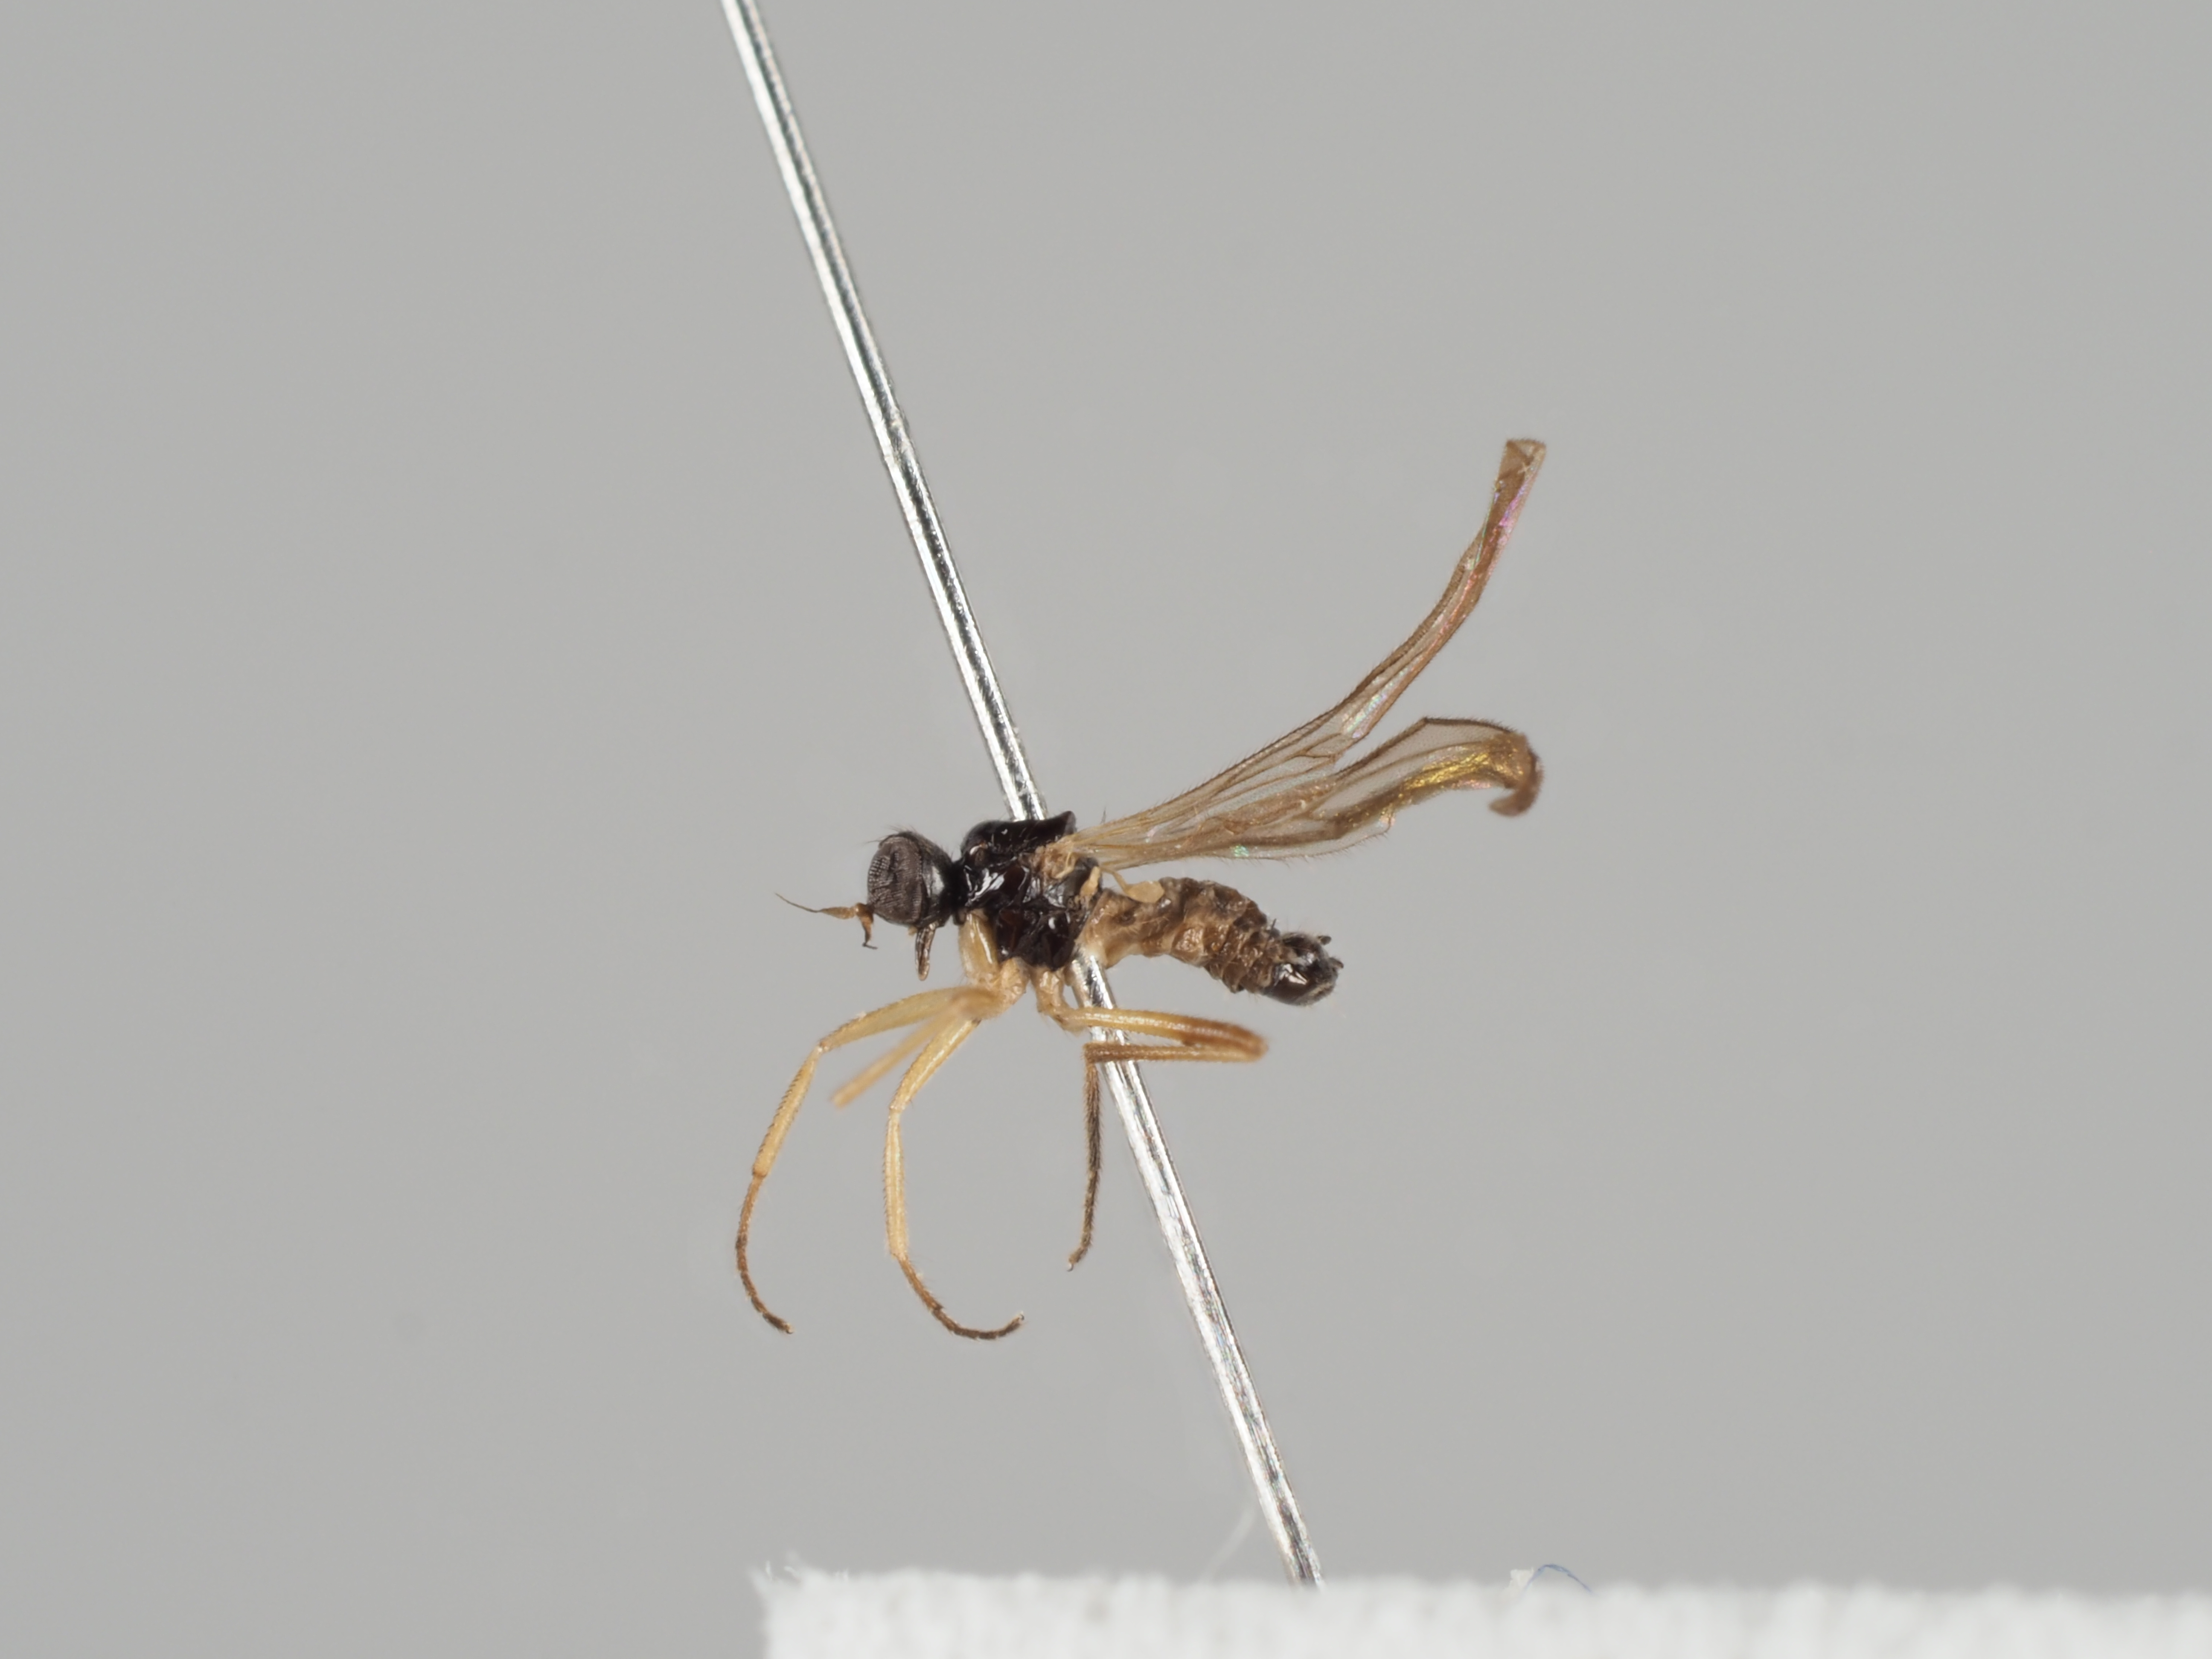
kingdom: Animalia
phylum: Arthropoda
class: Insecta
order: Diptera
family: Hybotidae
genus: Symballophthalmus
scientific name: Symballophthalmus dissimilis
